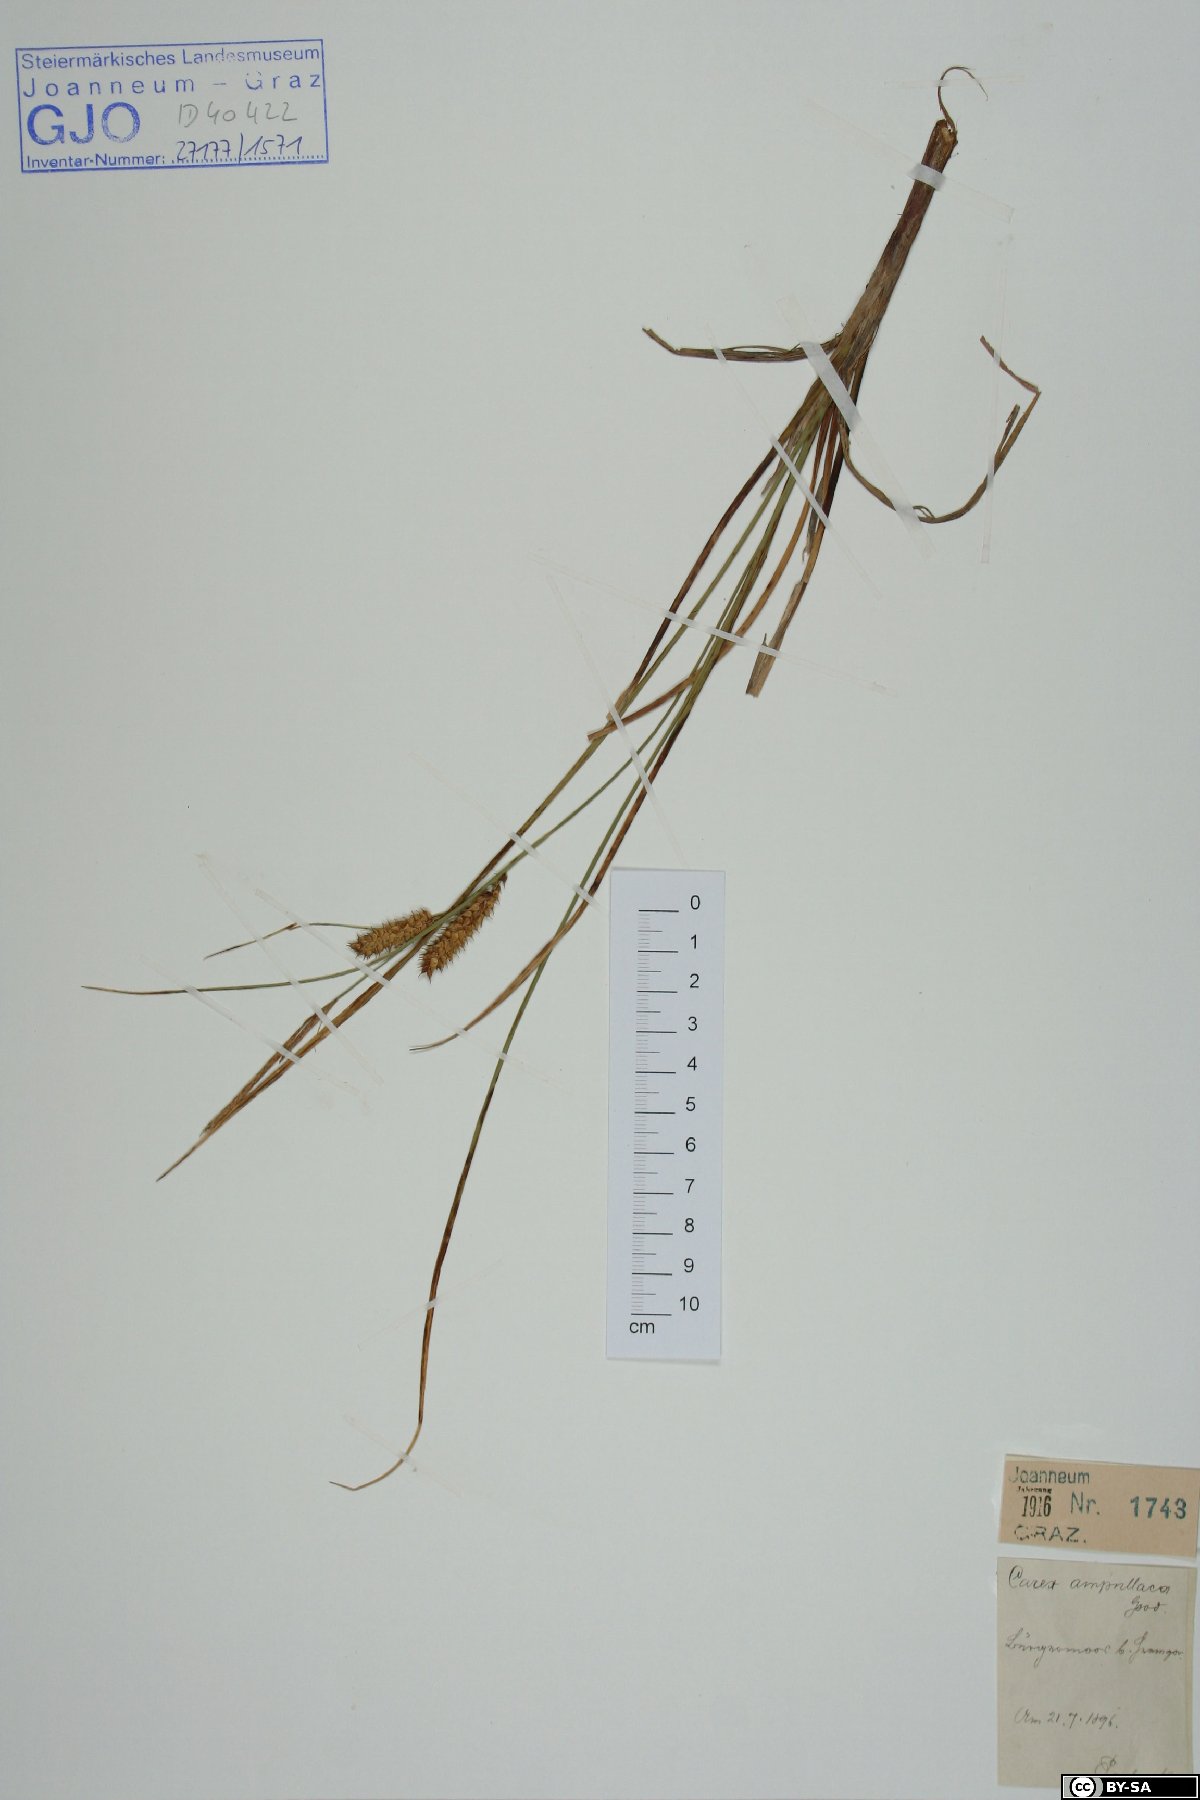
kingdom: Plantae
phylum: Tracheophyta
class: Liliopsida
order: Poales
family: Cyperaceae
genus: Carex
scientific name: Carex rostrata
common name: Bottle sedge
